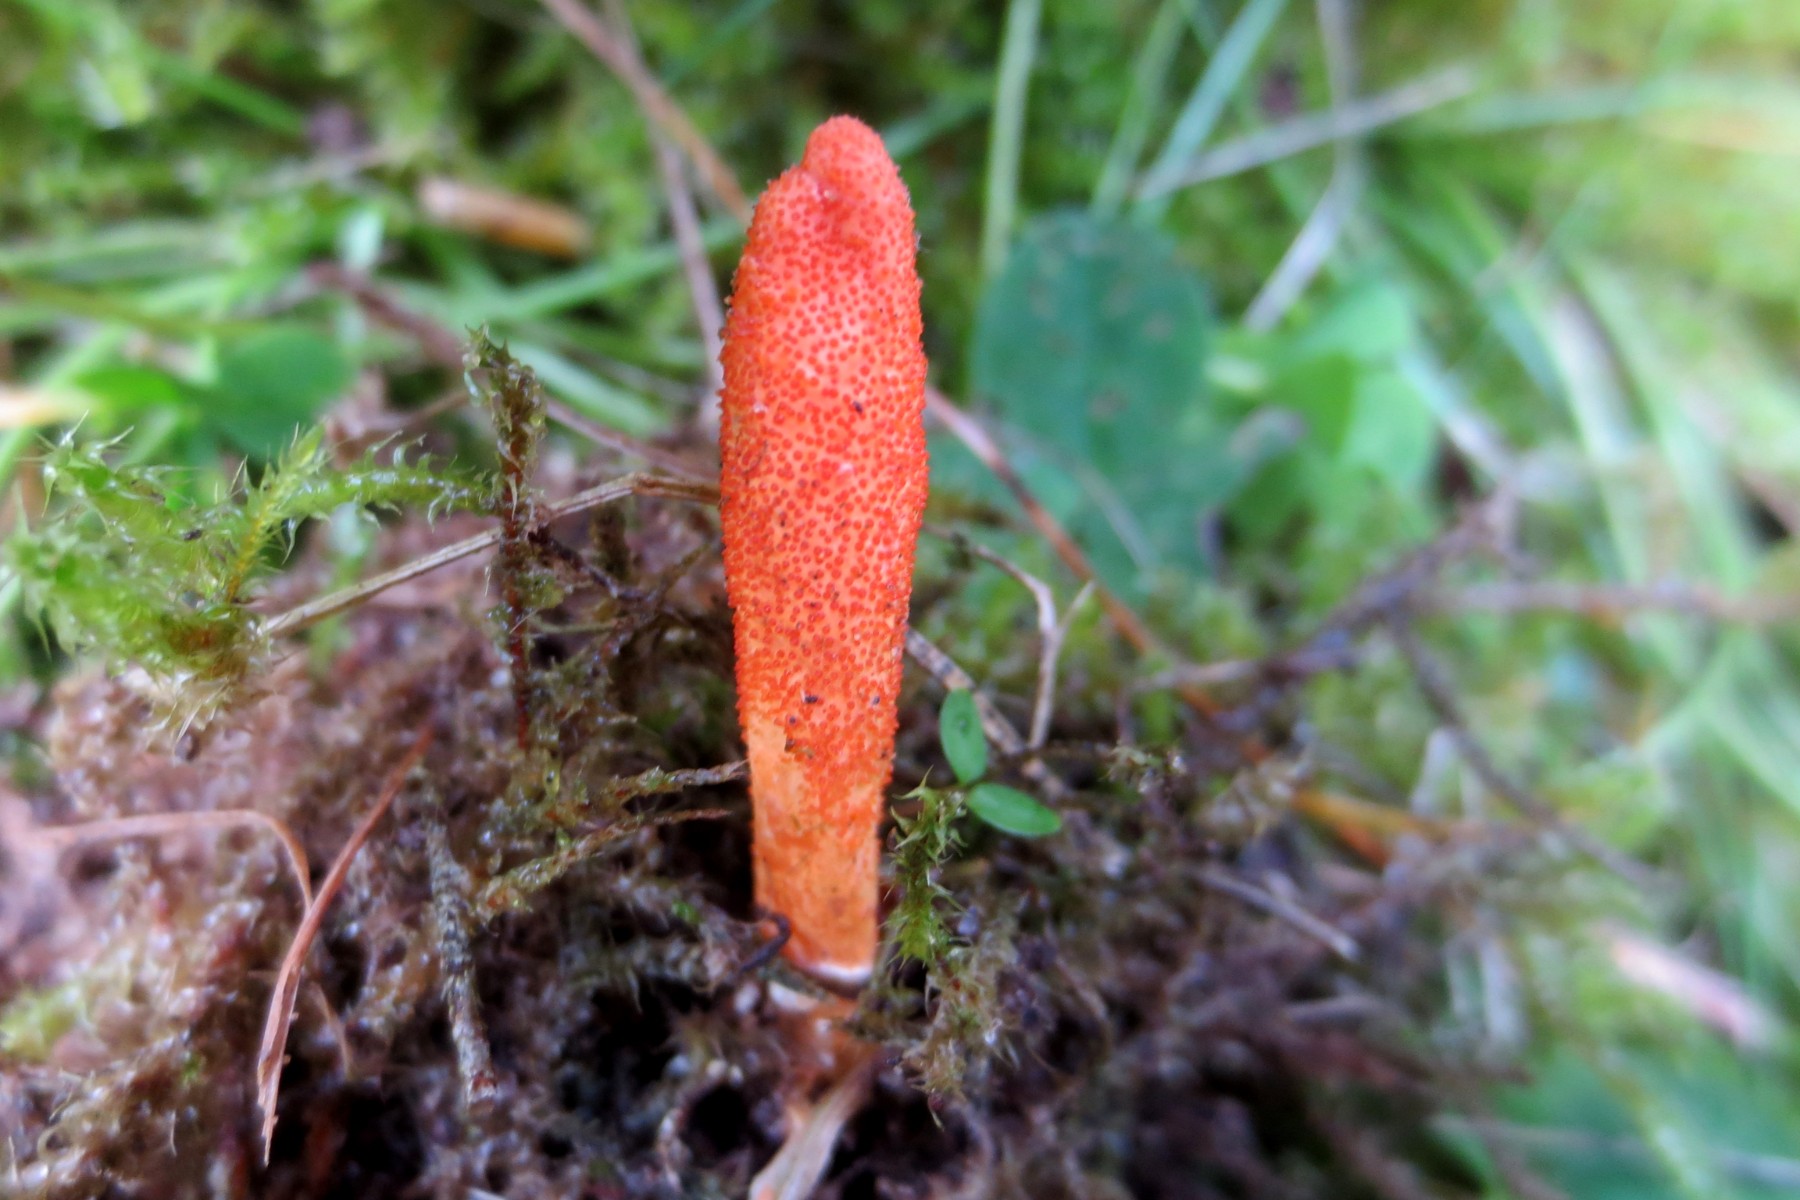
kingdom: Fungi
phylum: Ascomycota
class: Sordariomycetes
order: Hypocreales
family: Cordycipitaceae
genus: Cordyceps
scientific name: Cordyceps militaris
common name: puppe-snyltekølle
